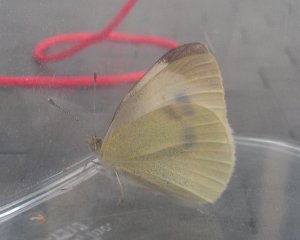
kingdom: Animalia
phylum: Arthropoda
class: Insecta
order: Lepidoptera
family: Pieridae
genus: Pieris
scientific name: Pieris rapae
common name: Cabbage White
